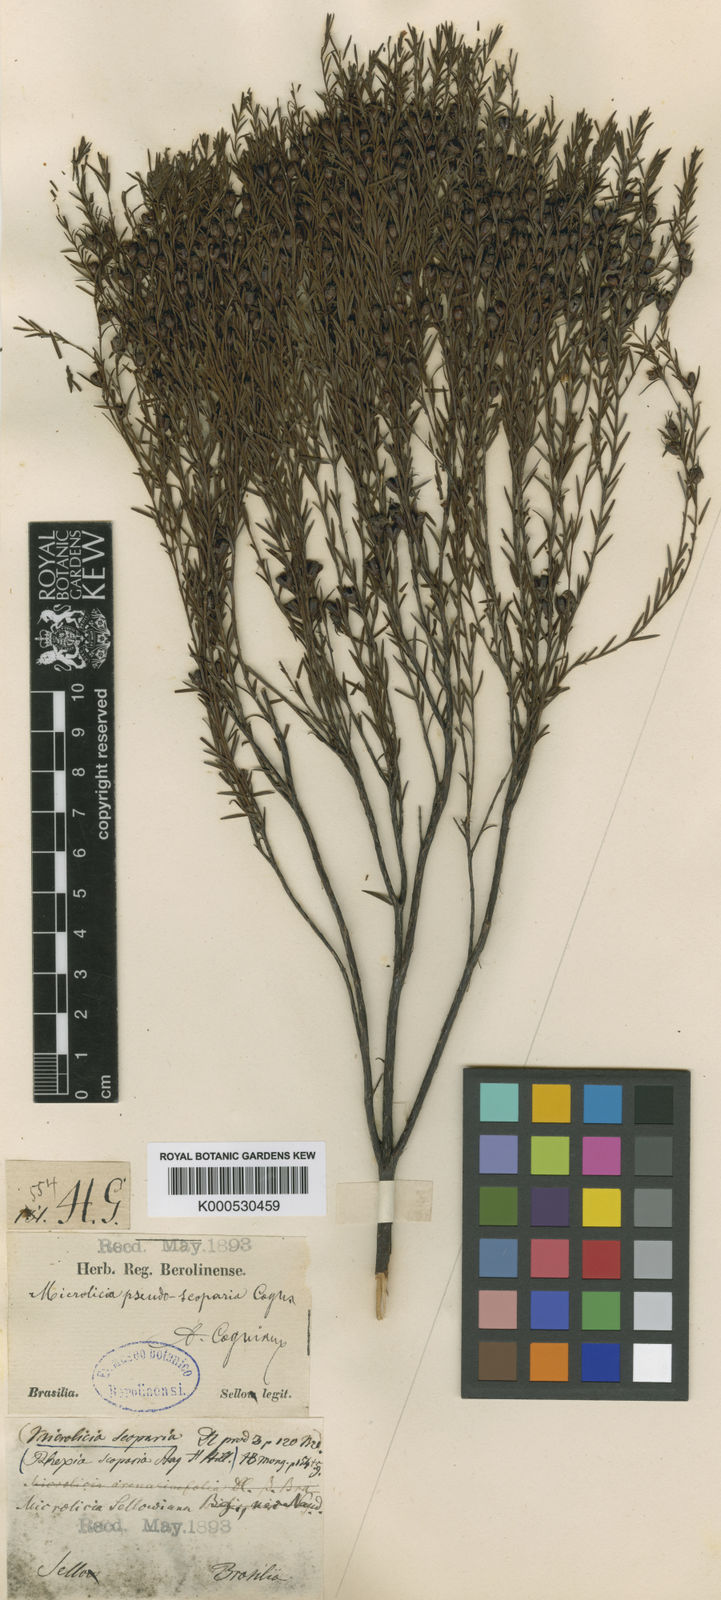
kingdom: Plantae
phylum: Tracheophyta
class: Magnoliopsida
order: Myrtales
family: Melastomataceae
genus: Microlicia
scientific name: Microlicia
